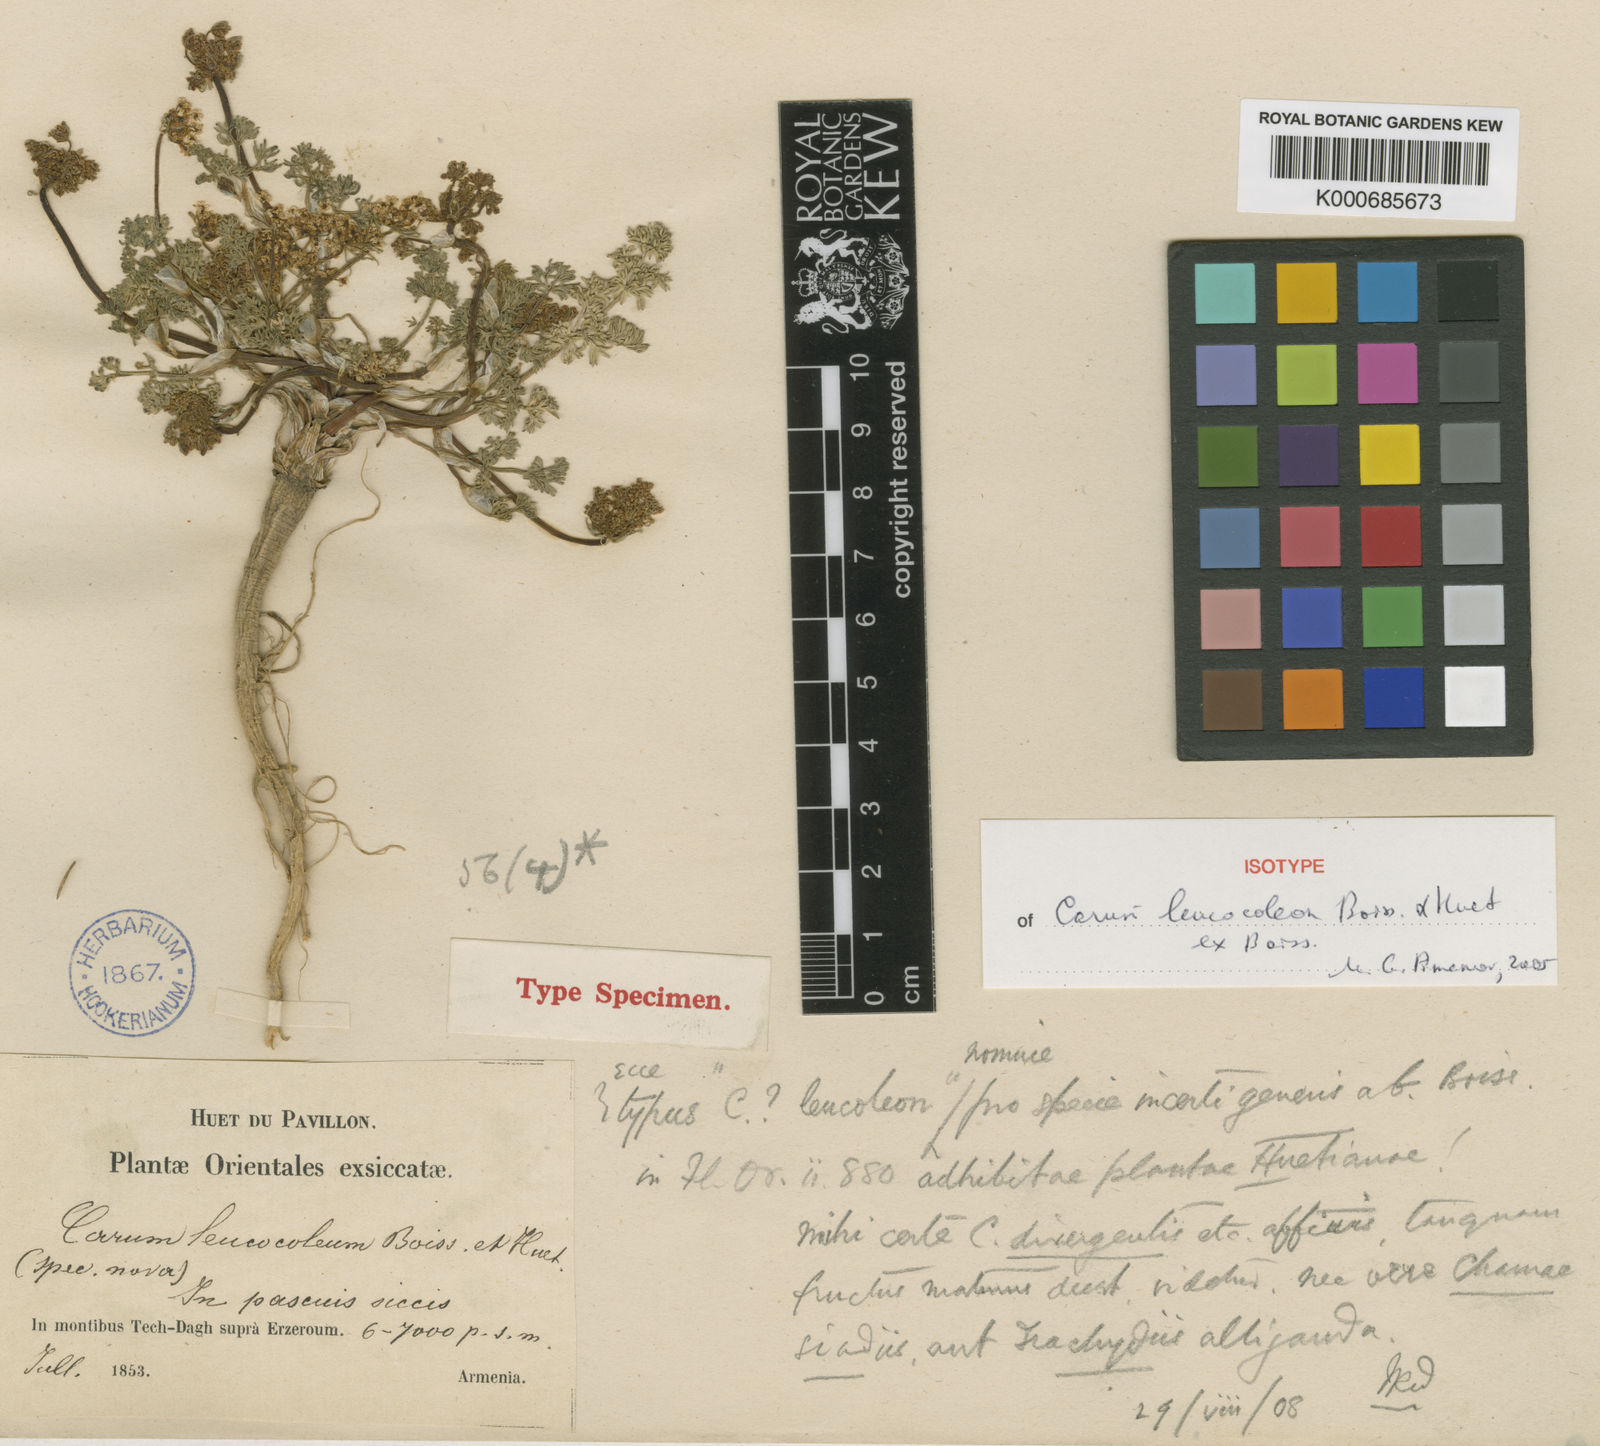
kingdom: Plantae
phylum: Tracheophyta
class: Magnoliopsida
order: Apiales
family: Apiaceae
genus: Carum
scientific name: Carum leucocoleon
